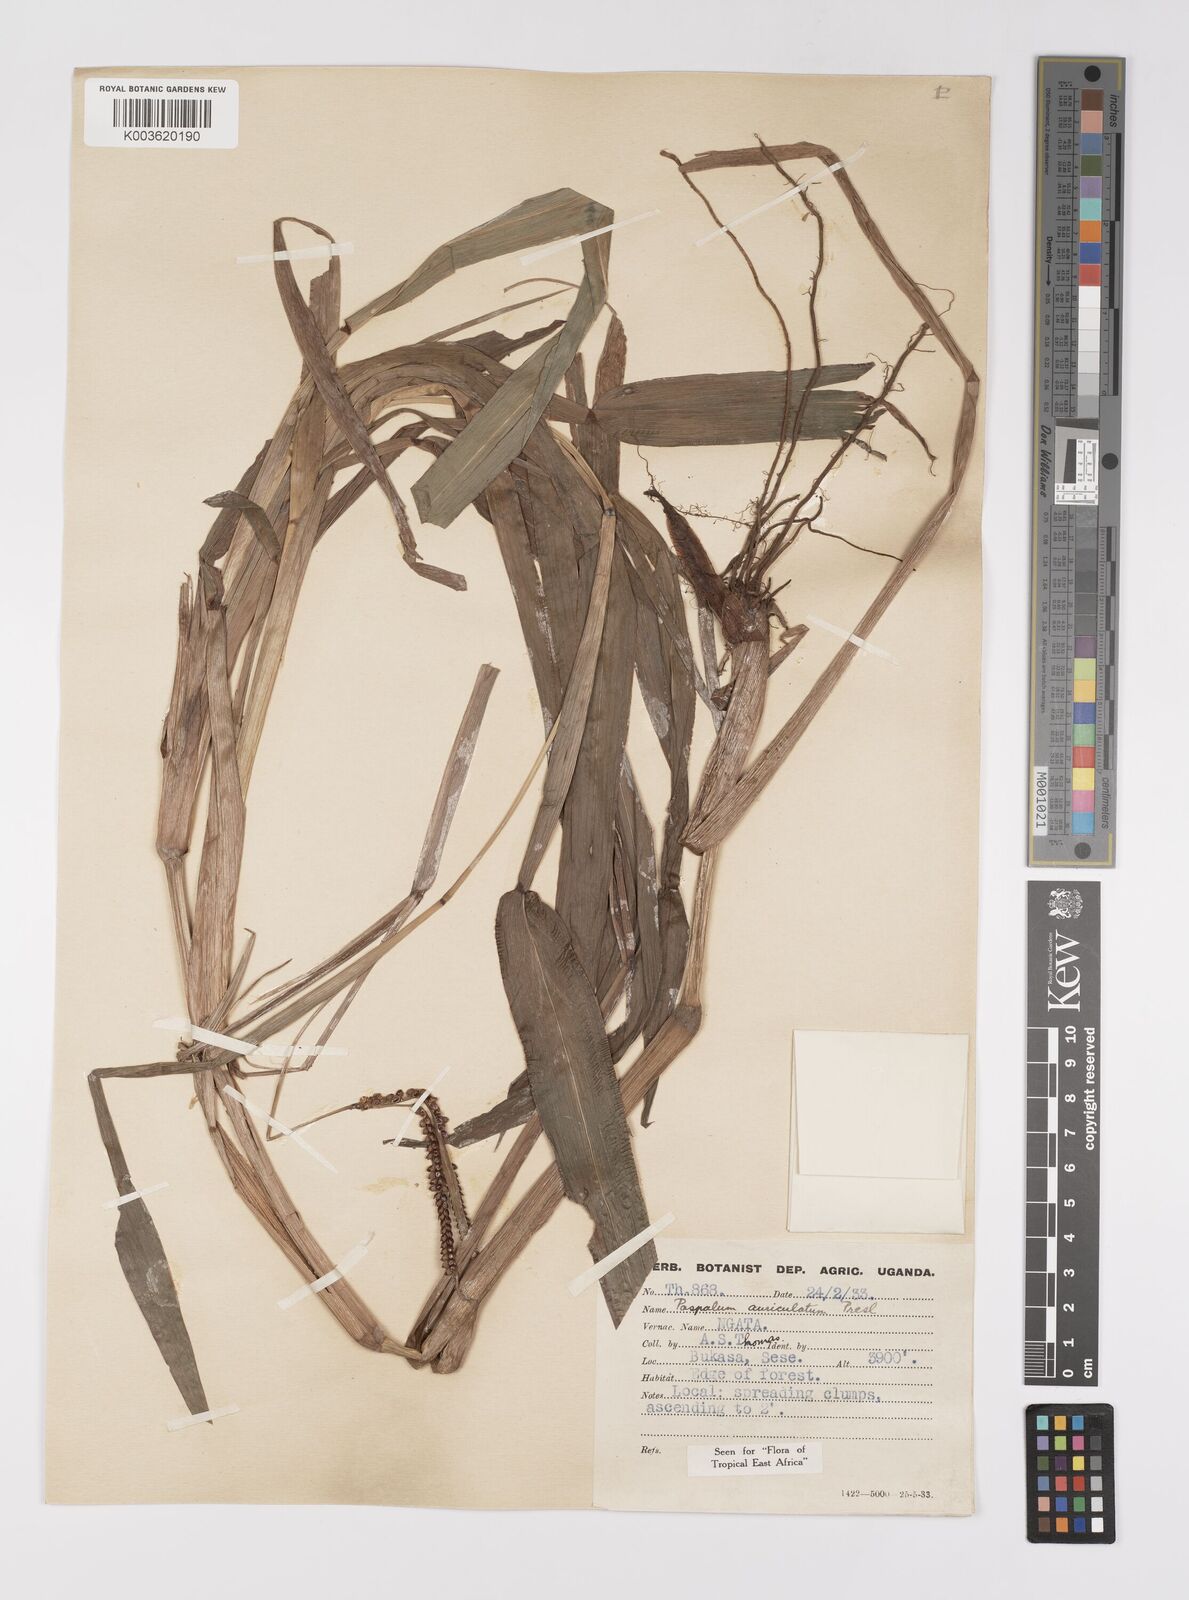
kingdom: Plantae
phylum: Tracheophyta
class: Liliopsida
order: Poales
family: Poaceae
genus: Paspalum
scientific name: Paspalum lamprocaryon
